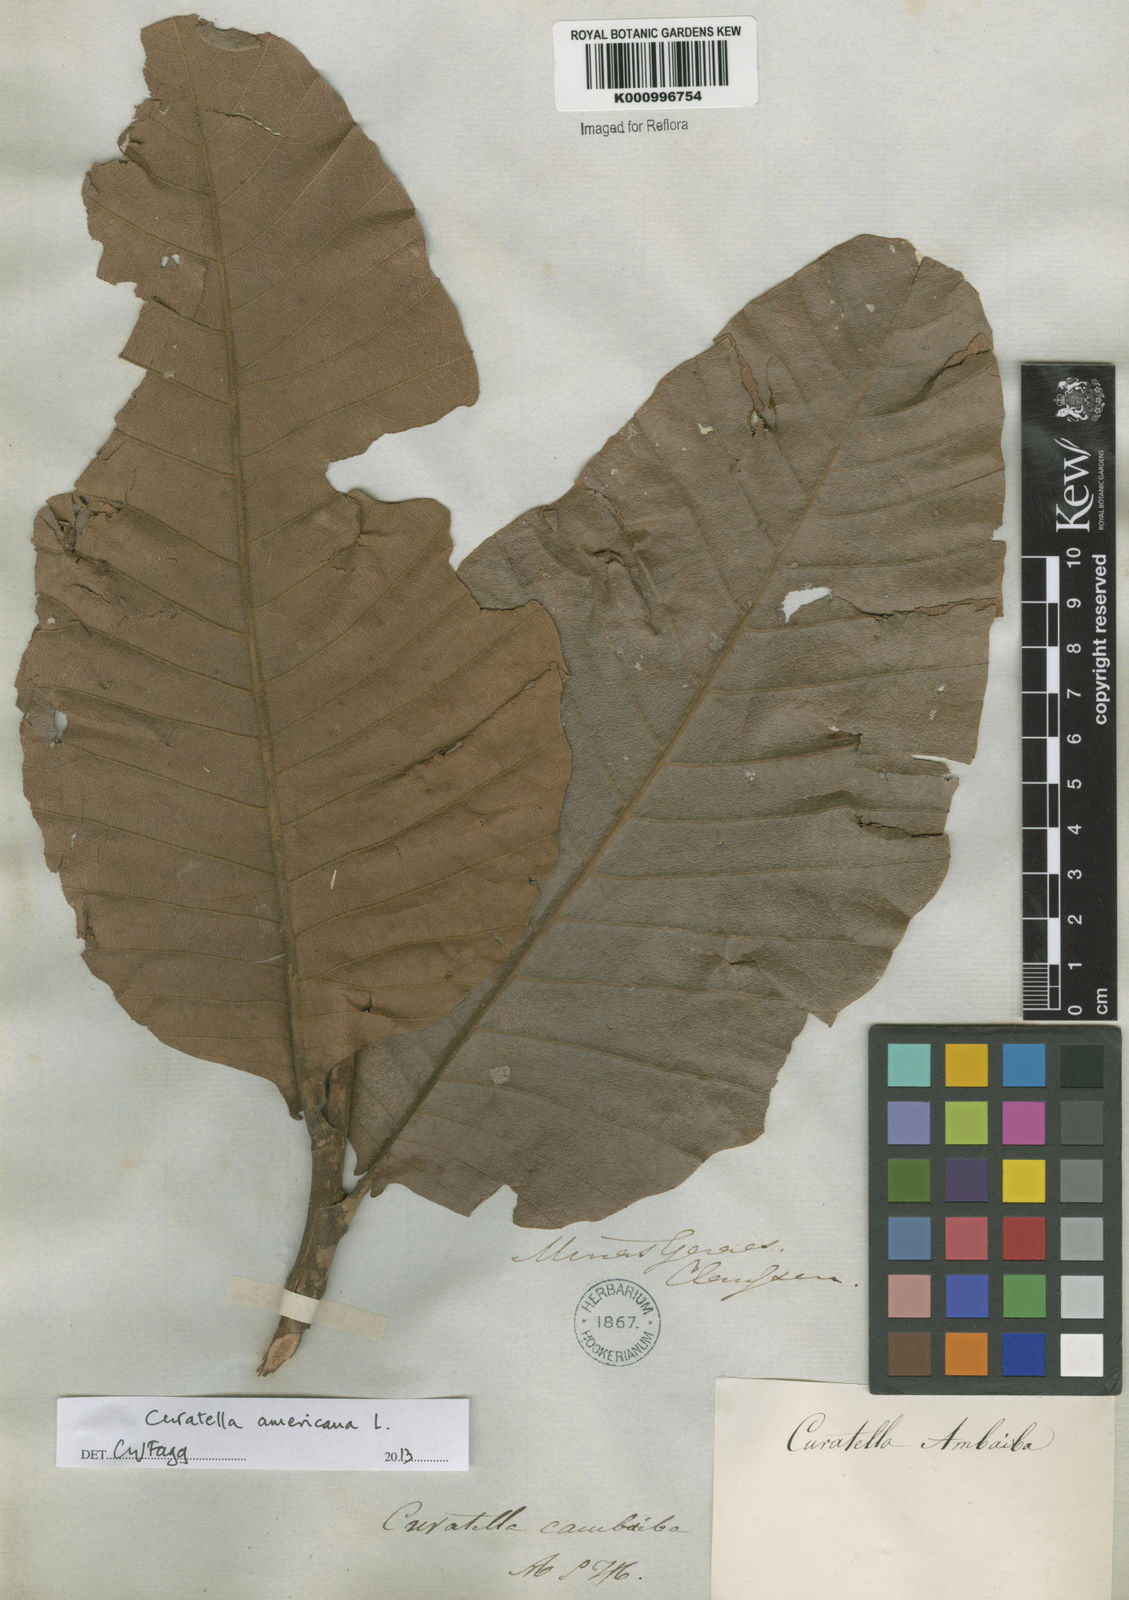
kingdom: Plantae
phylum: Tracheophyta
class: Magnoliopsida
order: Dilleniales
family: Dilleniaceae
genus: Curatella
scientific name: Curatella americana
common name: Sandpaper tree
